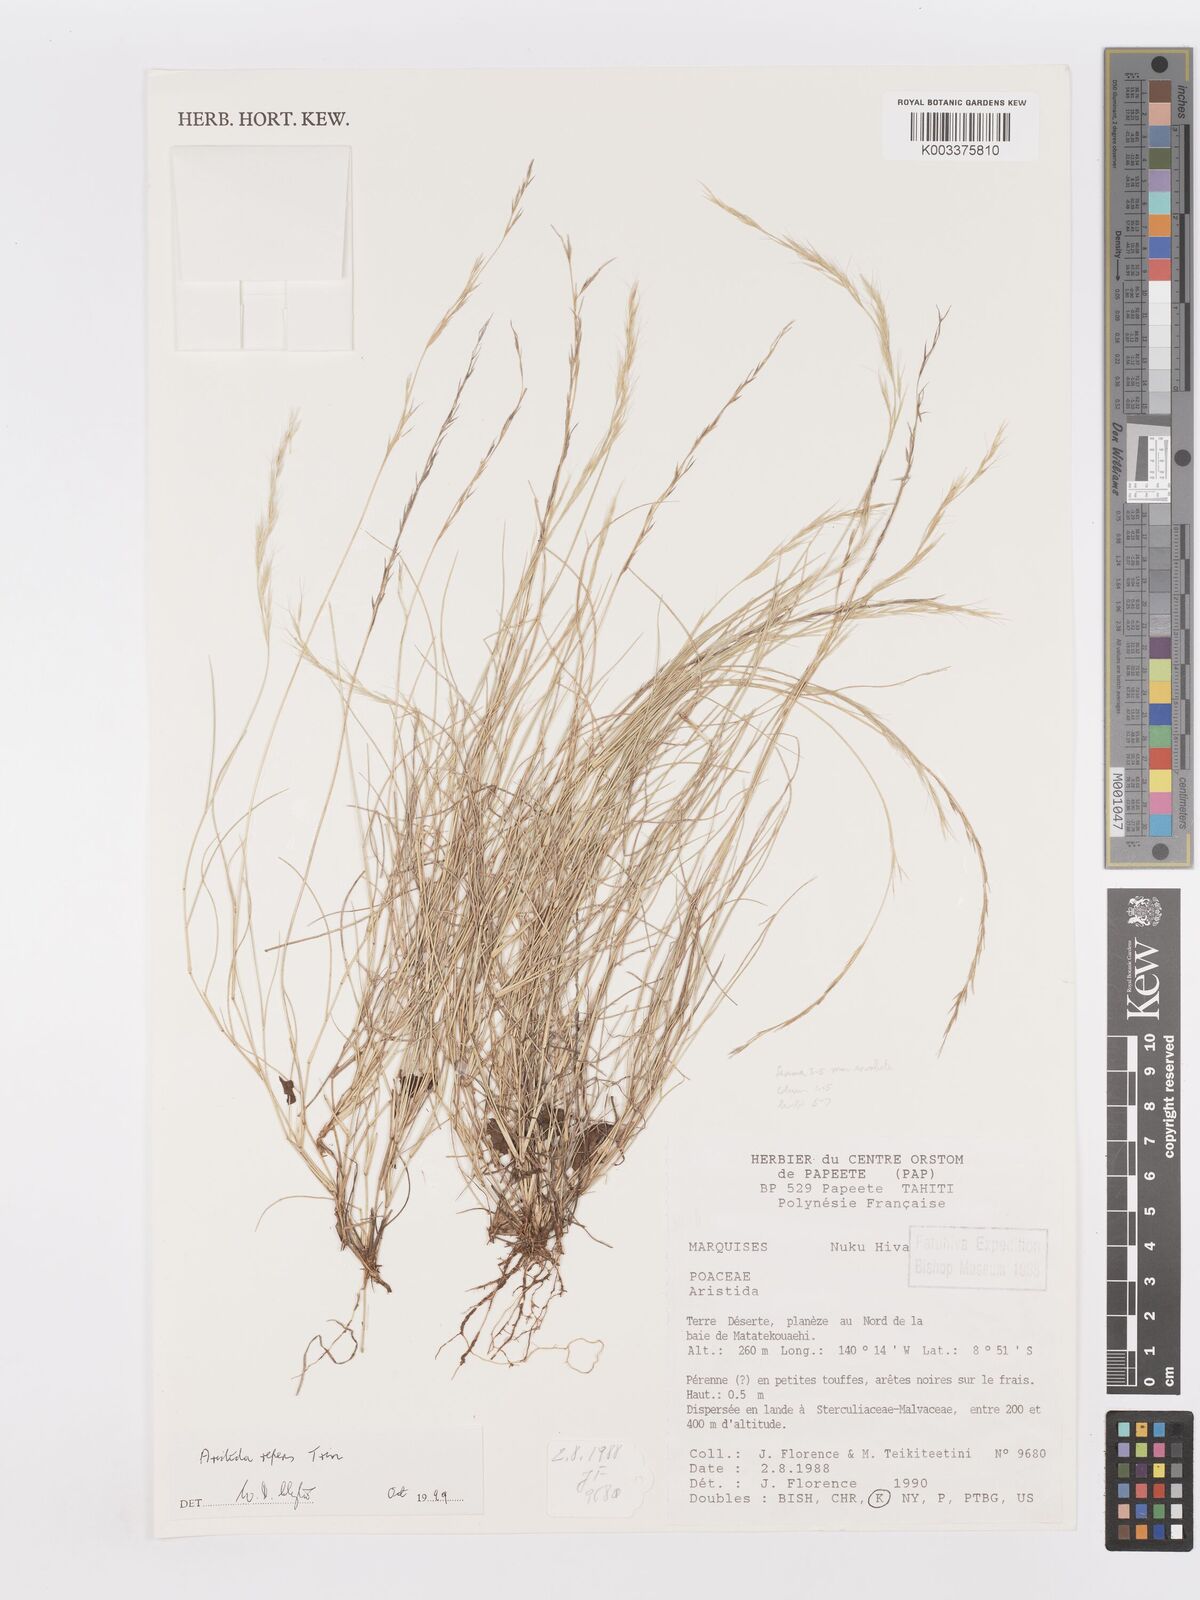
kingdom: Plantae
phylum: Tracheophyta
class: Liliopsida
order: Poales
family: Poaceae
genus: Aristida
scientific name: Aristida repens
